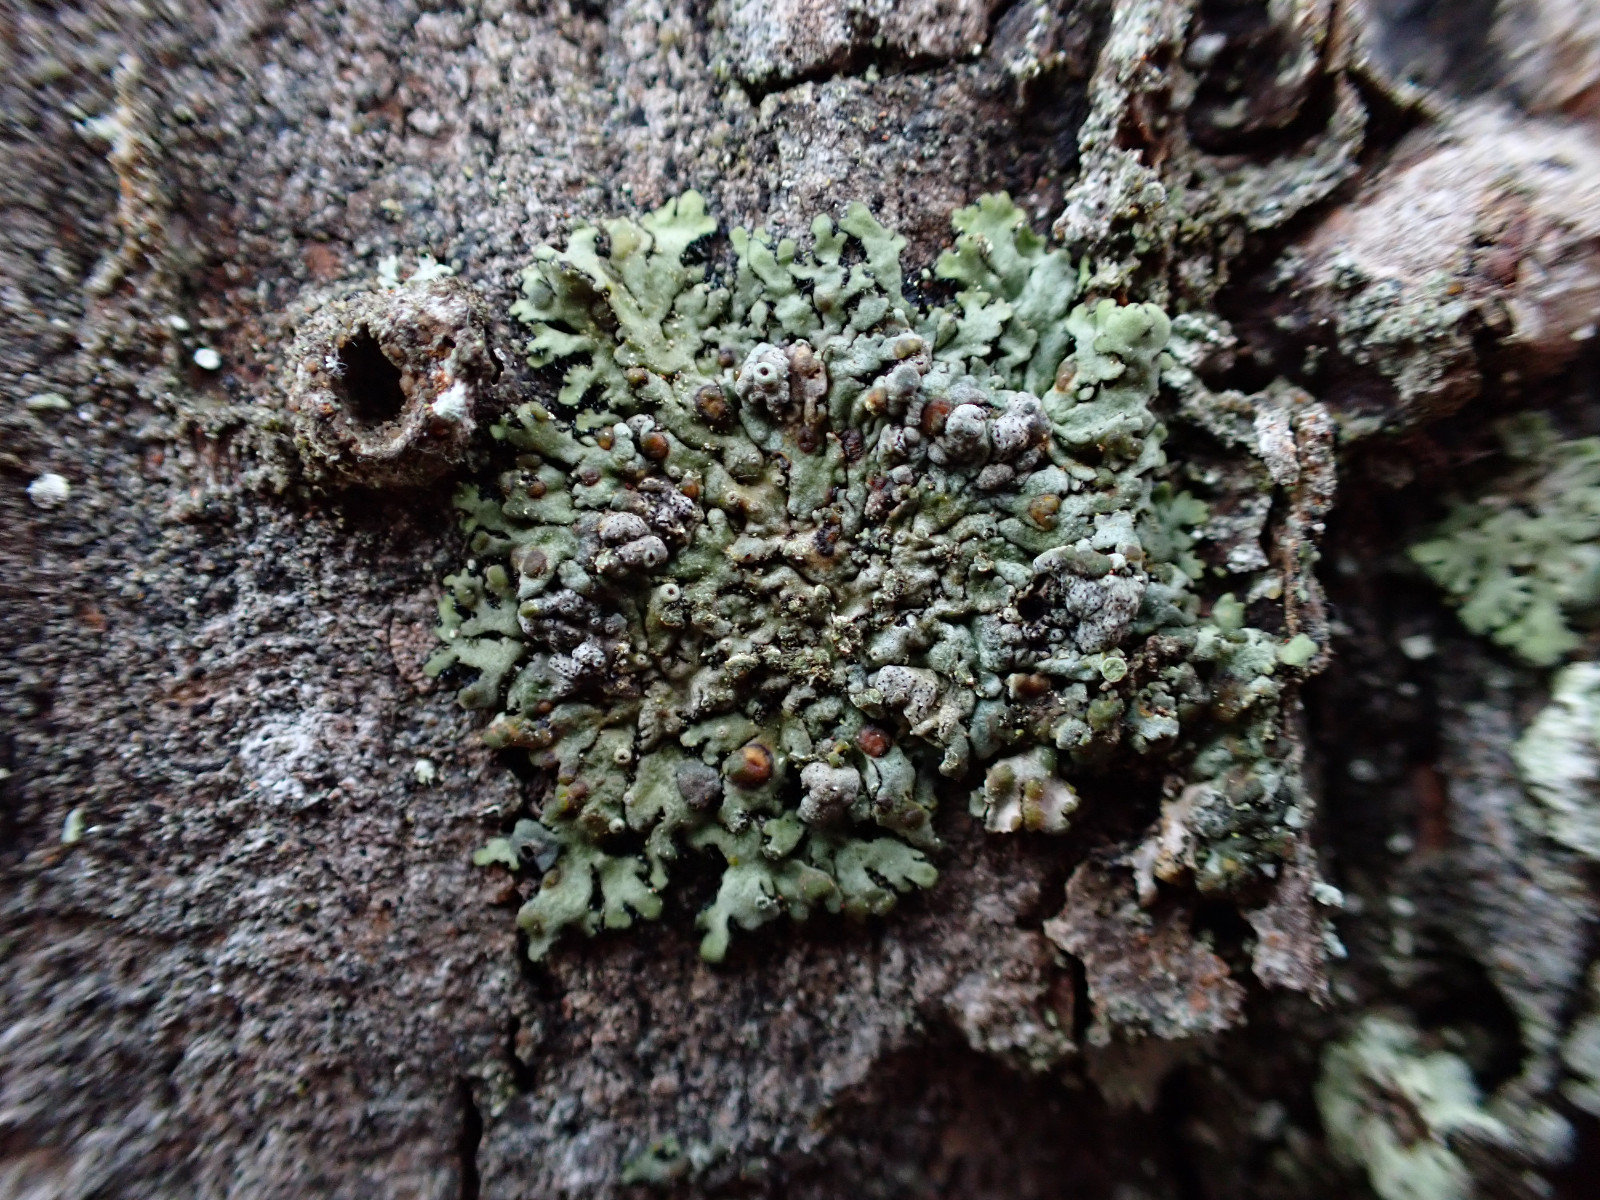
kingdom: Fungi
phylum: Basidiomycota
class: Tremellomycetes
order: Tremellales
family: Tremellaceae
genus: Tremella
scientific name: Tremella phaeophysciae
